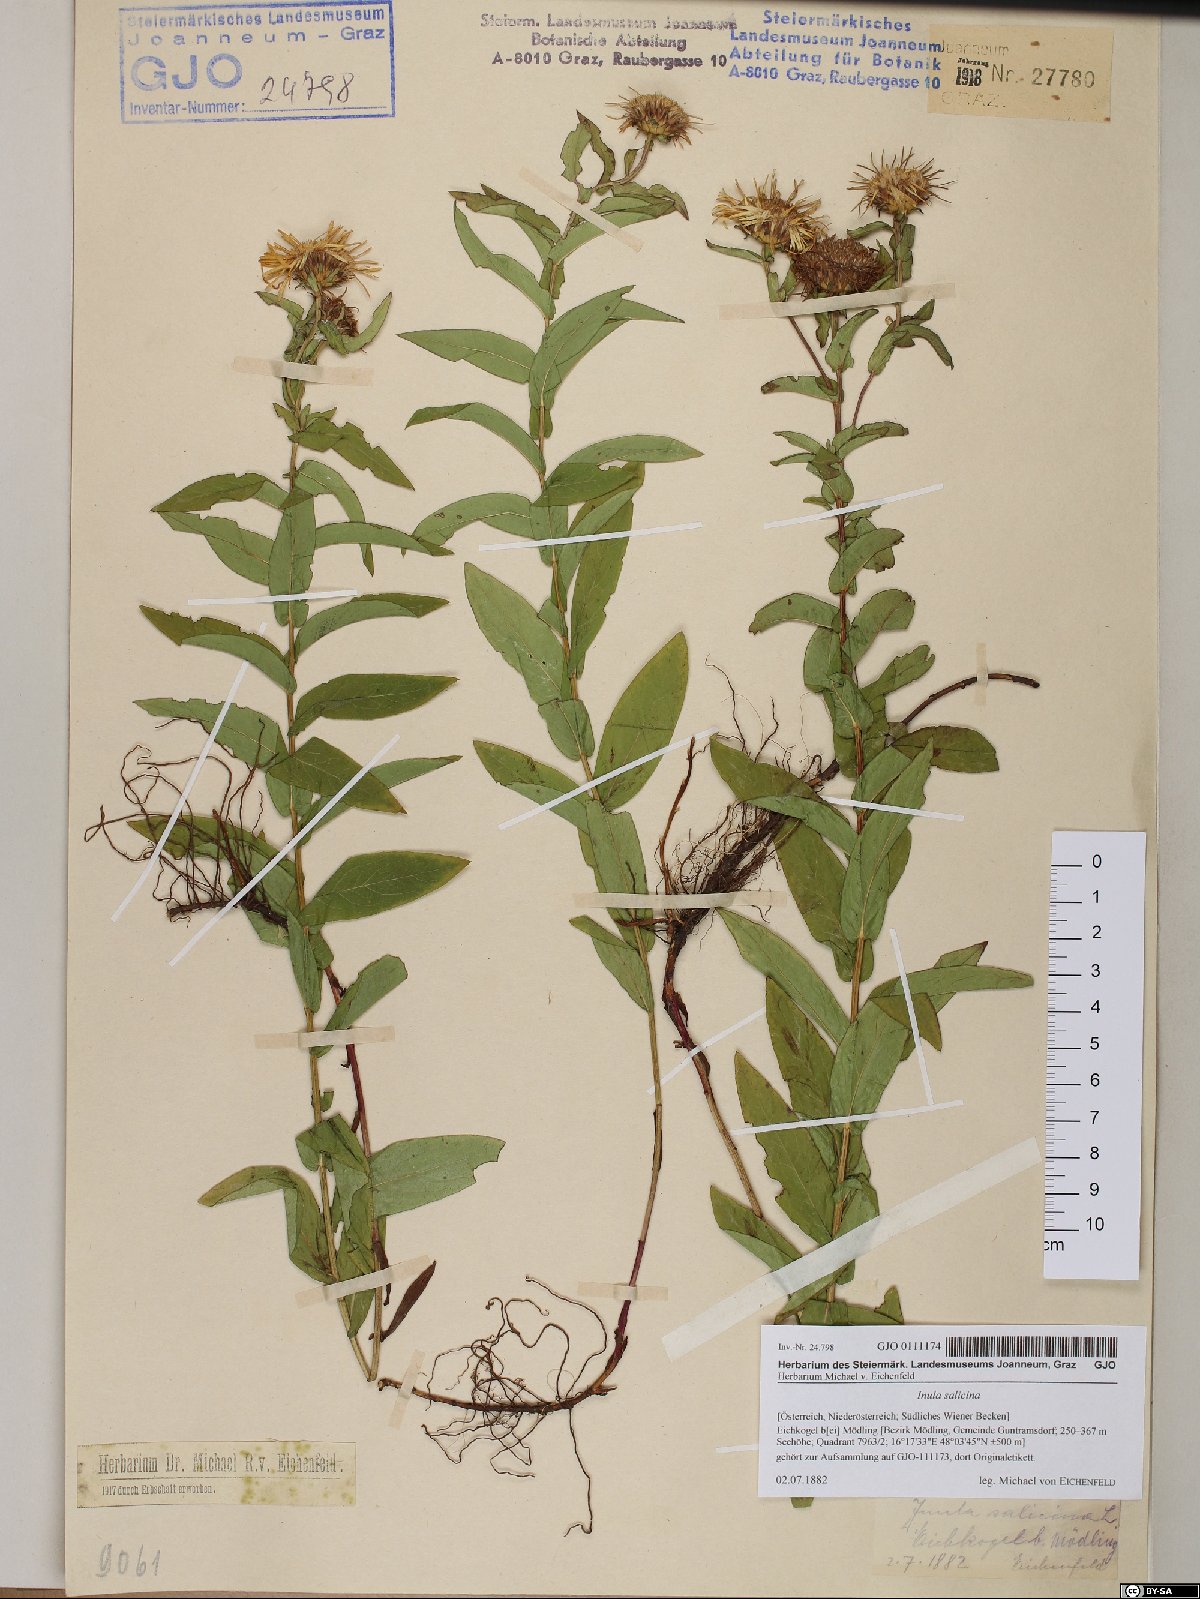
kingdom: Plantae
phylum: Tracheophyta
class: Magnoliopsida
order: Asterales
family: Asteraceae
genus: Pentanema
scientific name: Pentanema salicinum
